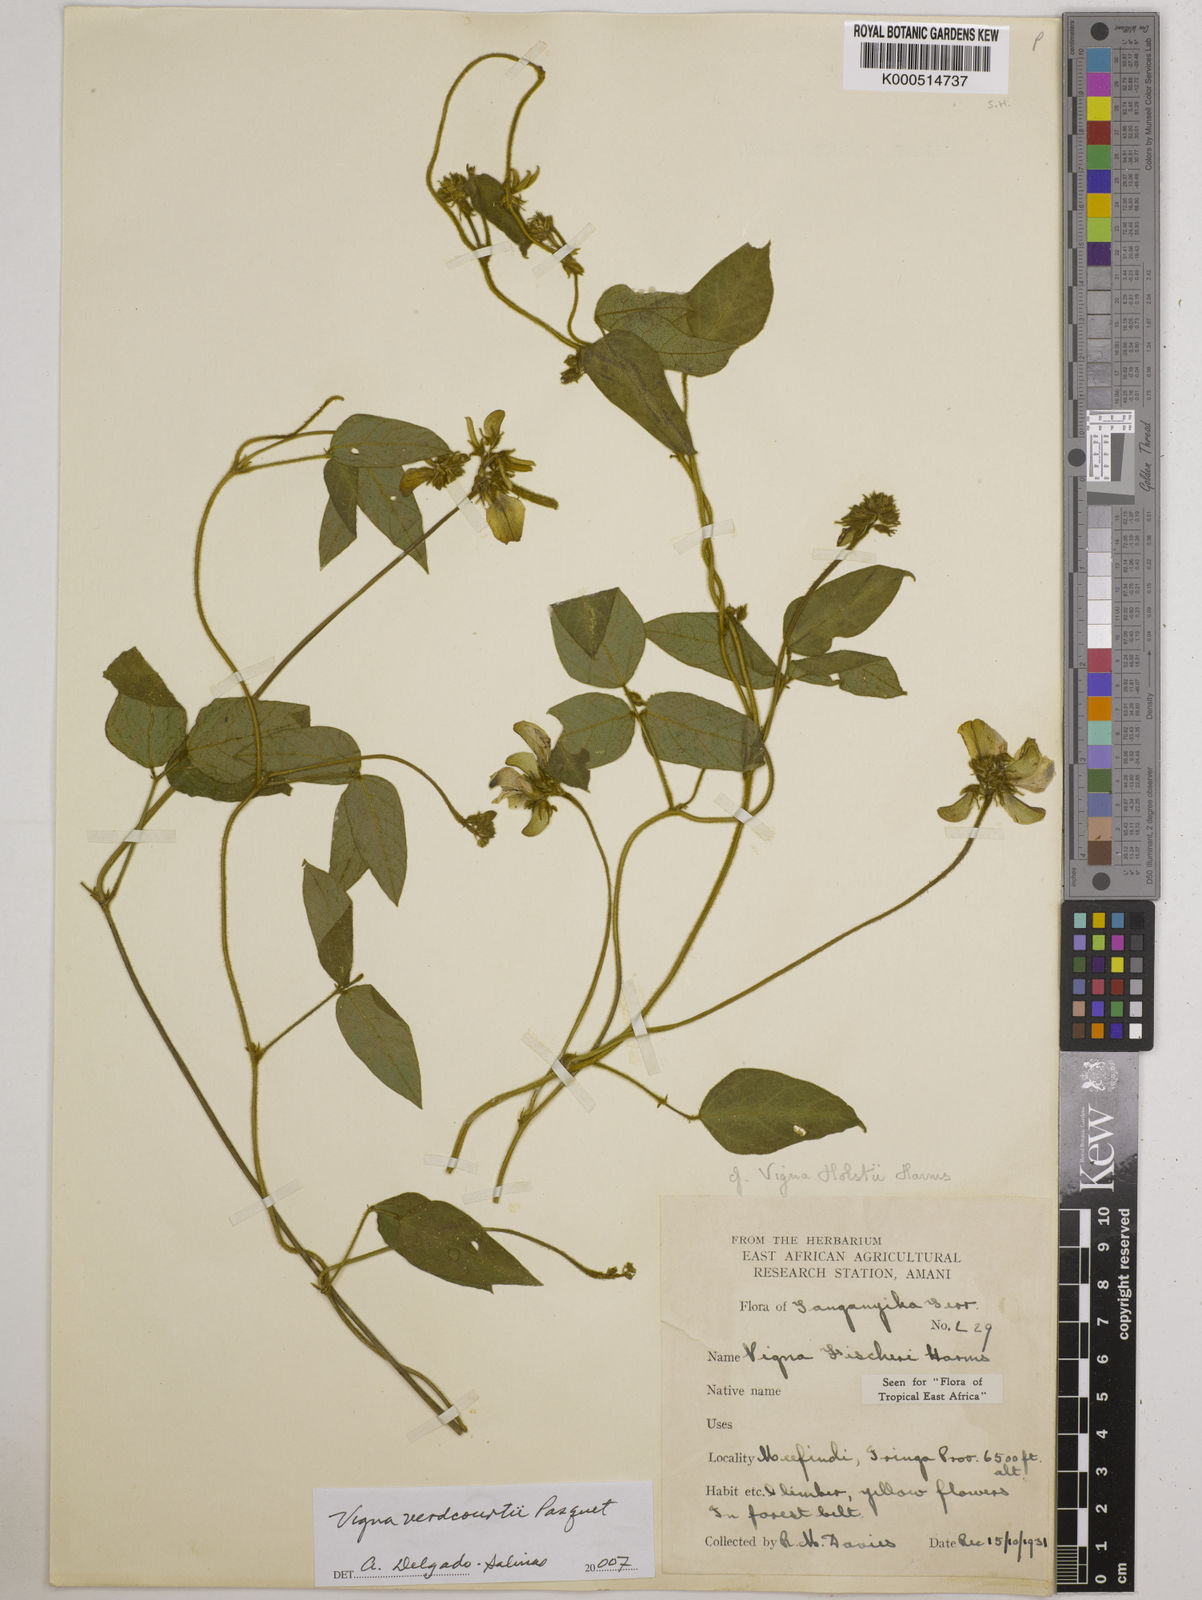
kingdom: Plantae
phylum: Tracheophyta
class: Magnoliopsida
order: Fabales
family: Fabaceae
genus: Vigna
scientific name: Vigna
